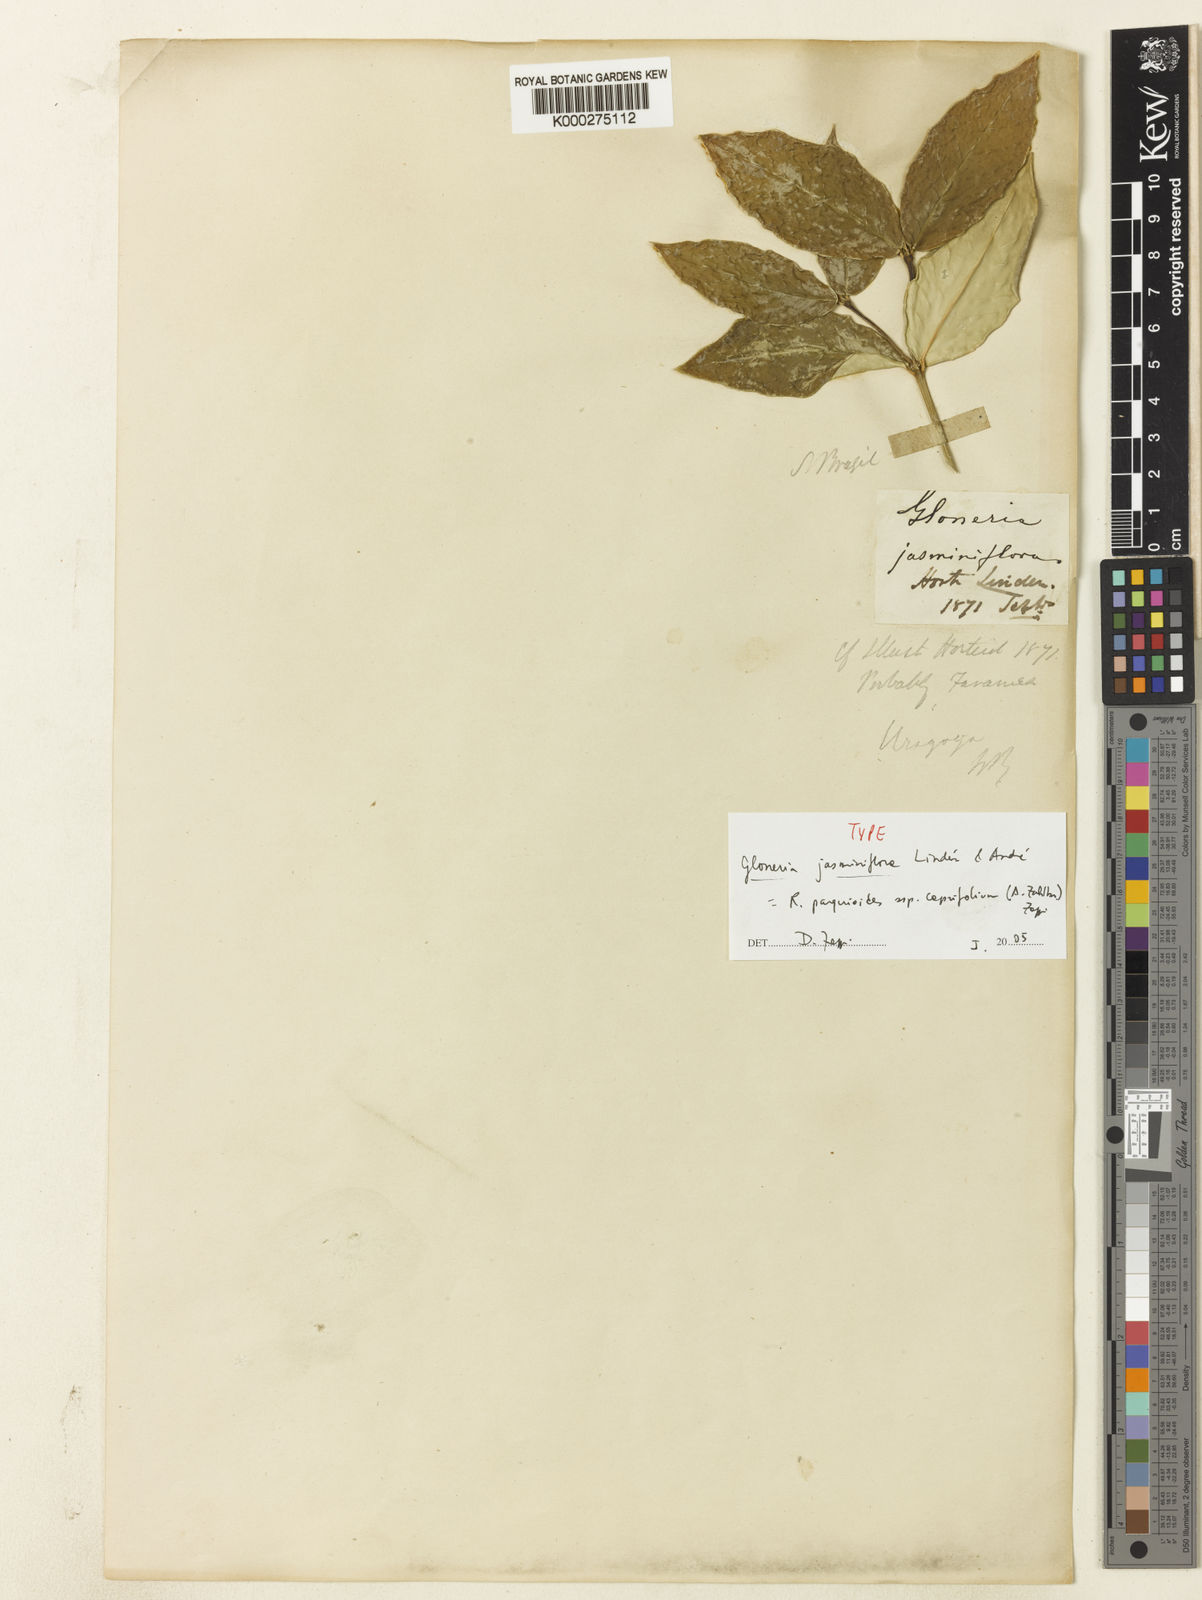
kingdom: Plantae
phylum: Tracheophyta
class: Magnoliopsida
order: Gentianales
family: Rubiaceae
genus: Rudgea
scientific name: Rudgea
